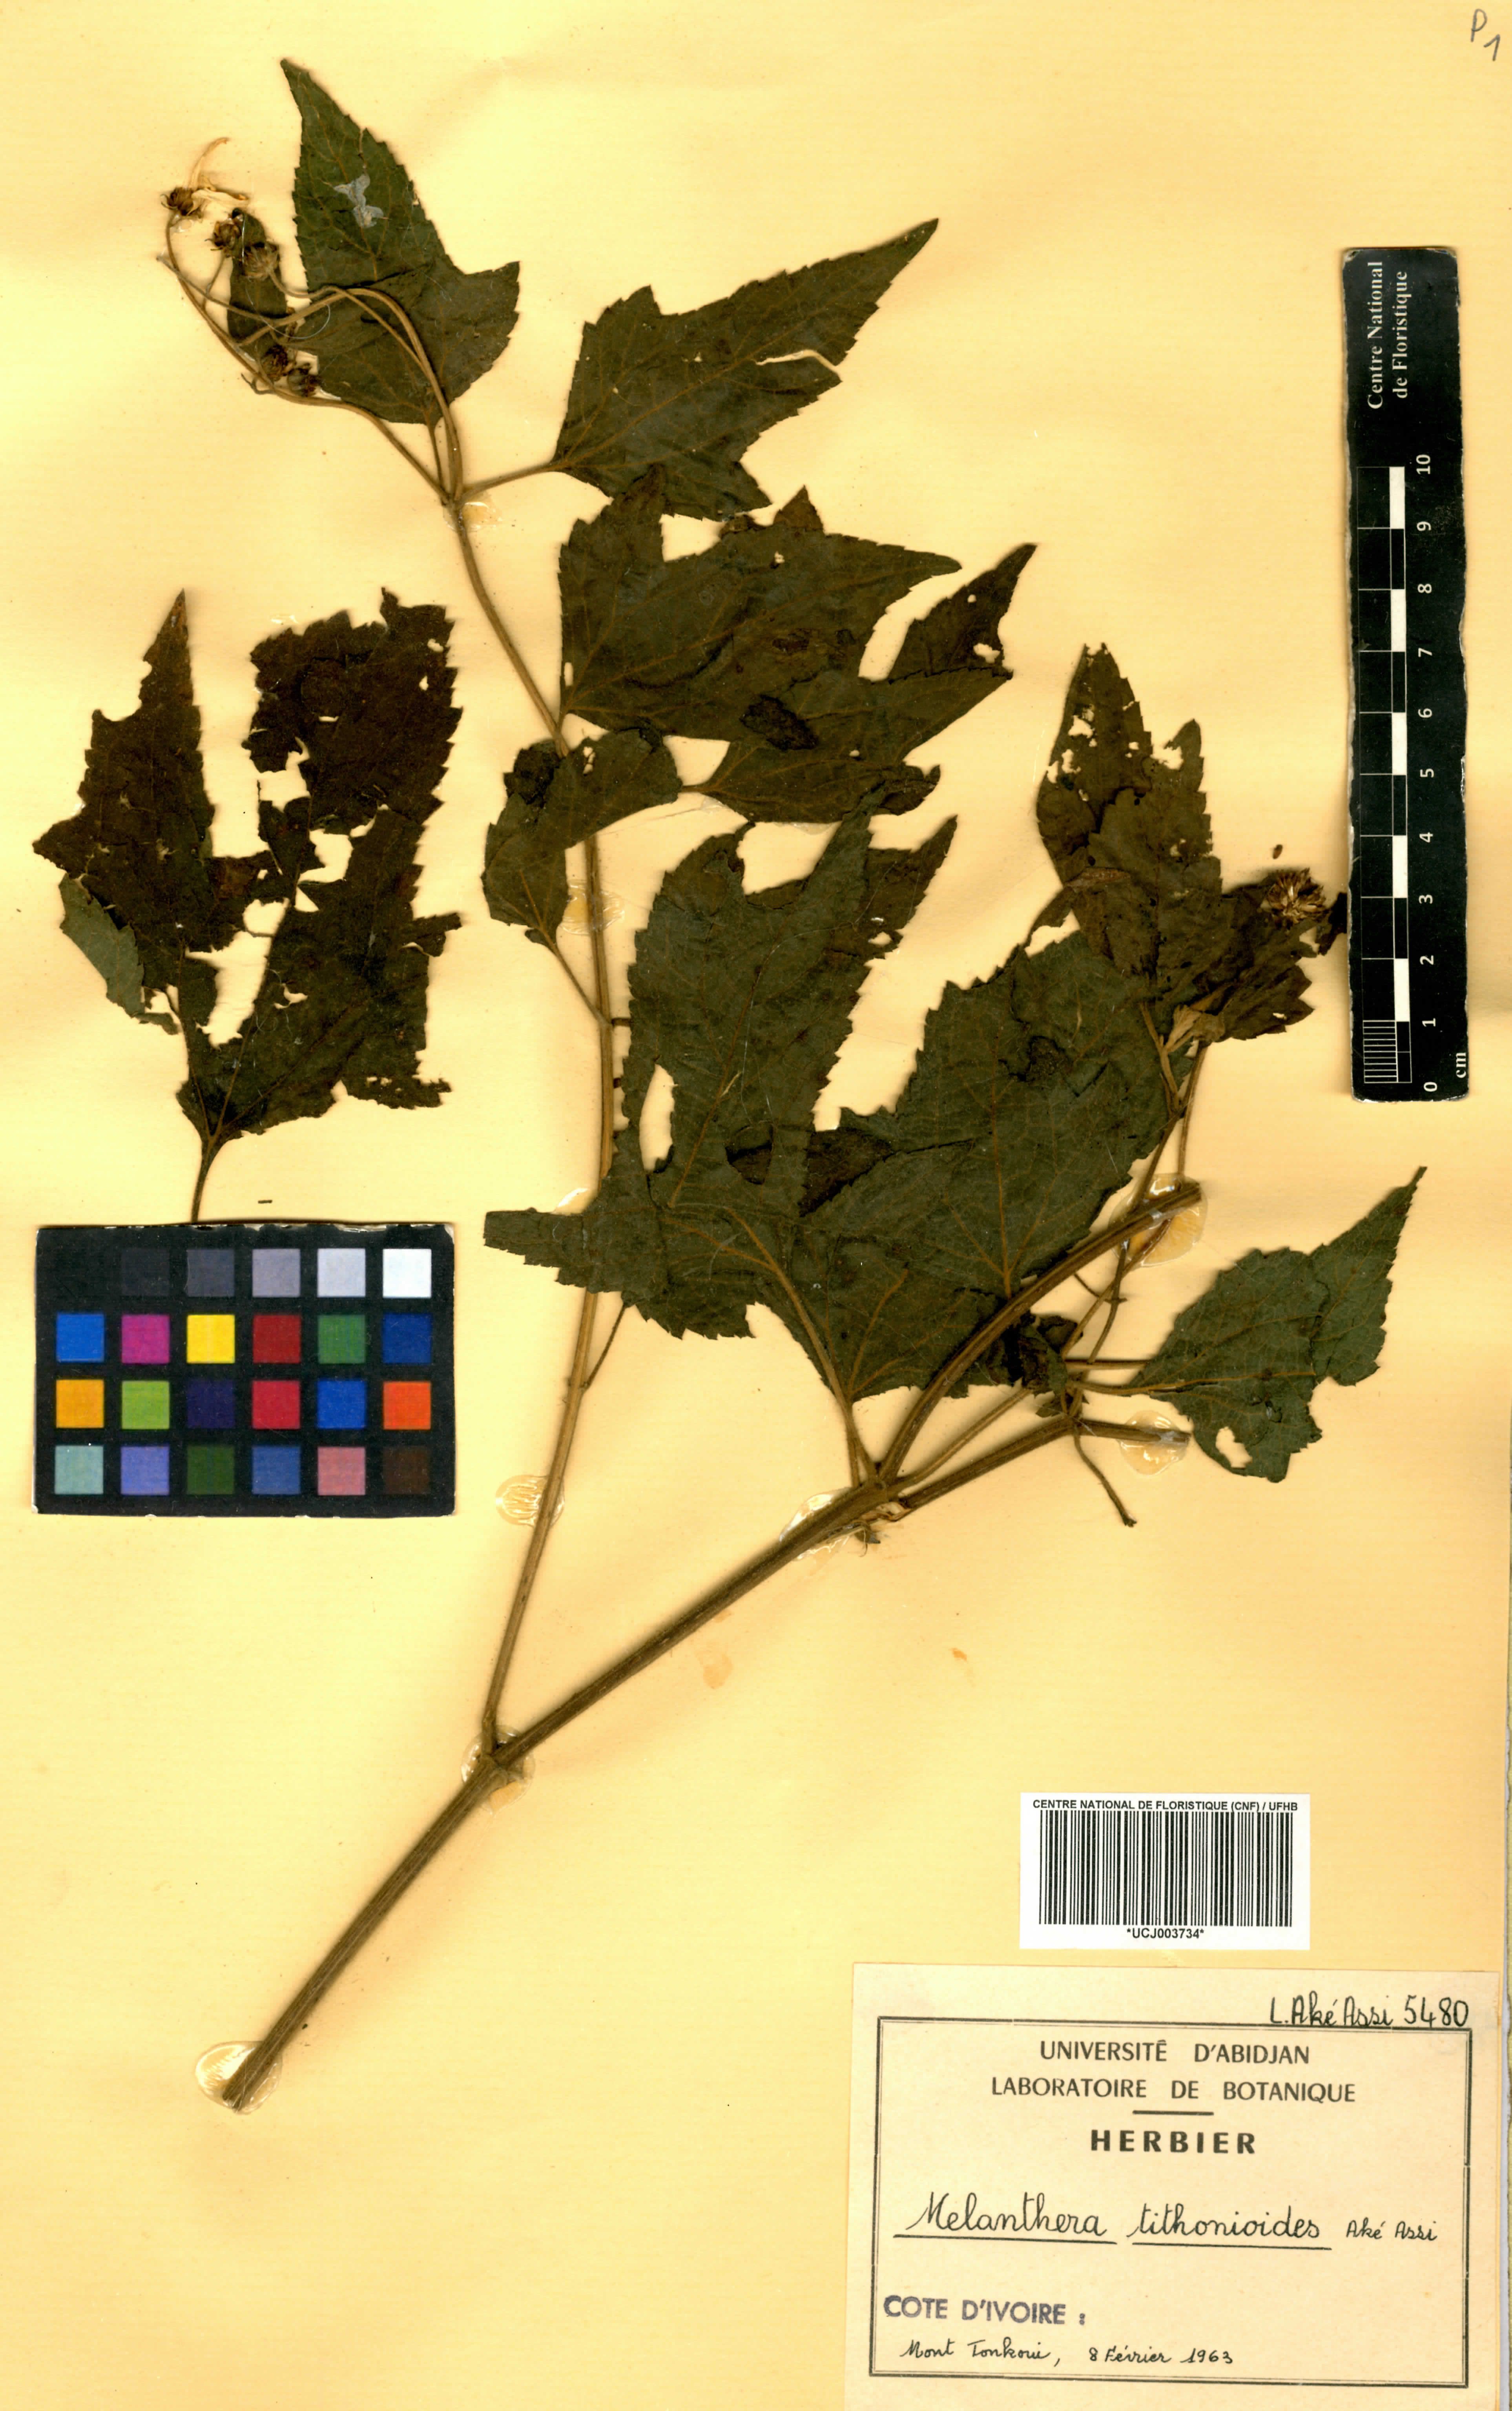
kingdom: Plantae
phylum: Tracheophyta
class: Magnoliopsida
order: Asterales
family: Asteraceae
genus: Lipotriche
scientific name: Lipotriche tithonioides
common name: Simandou daisy
